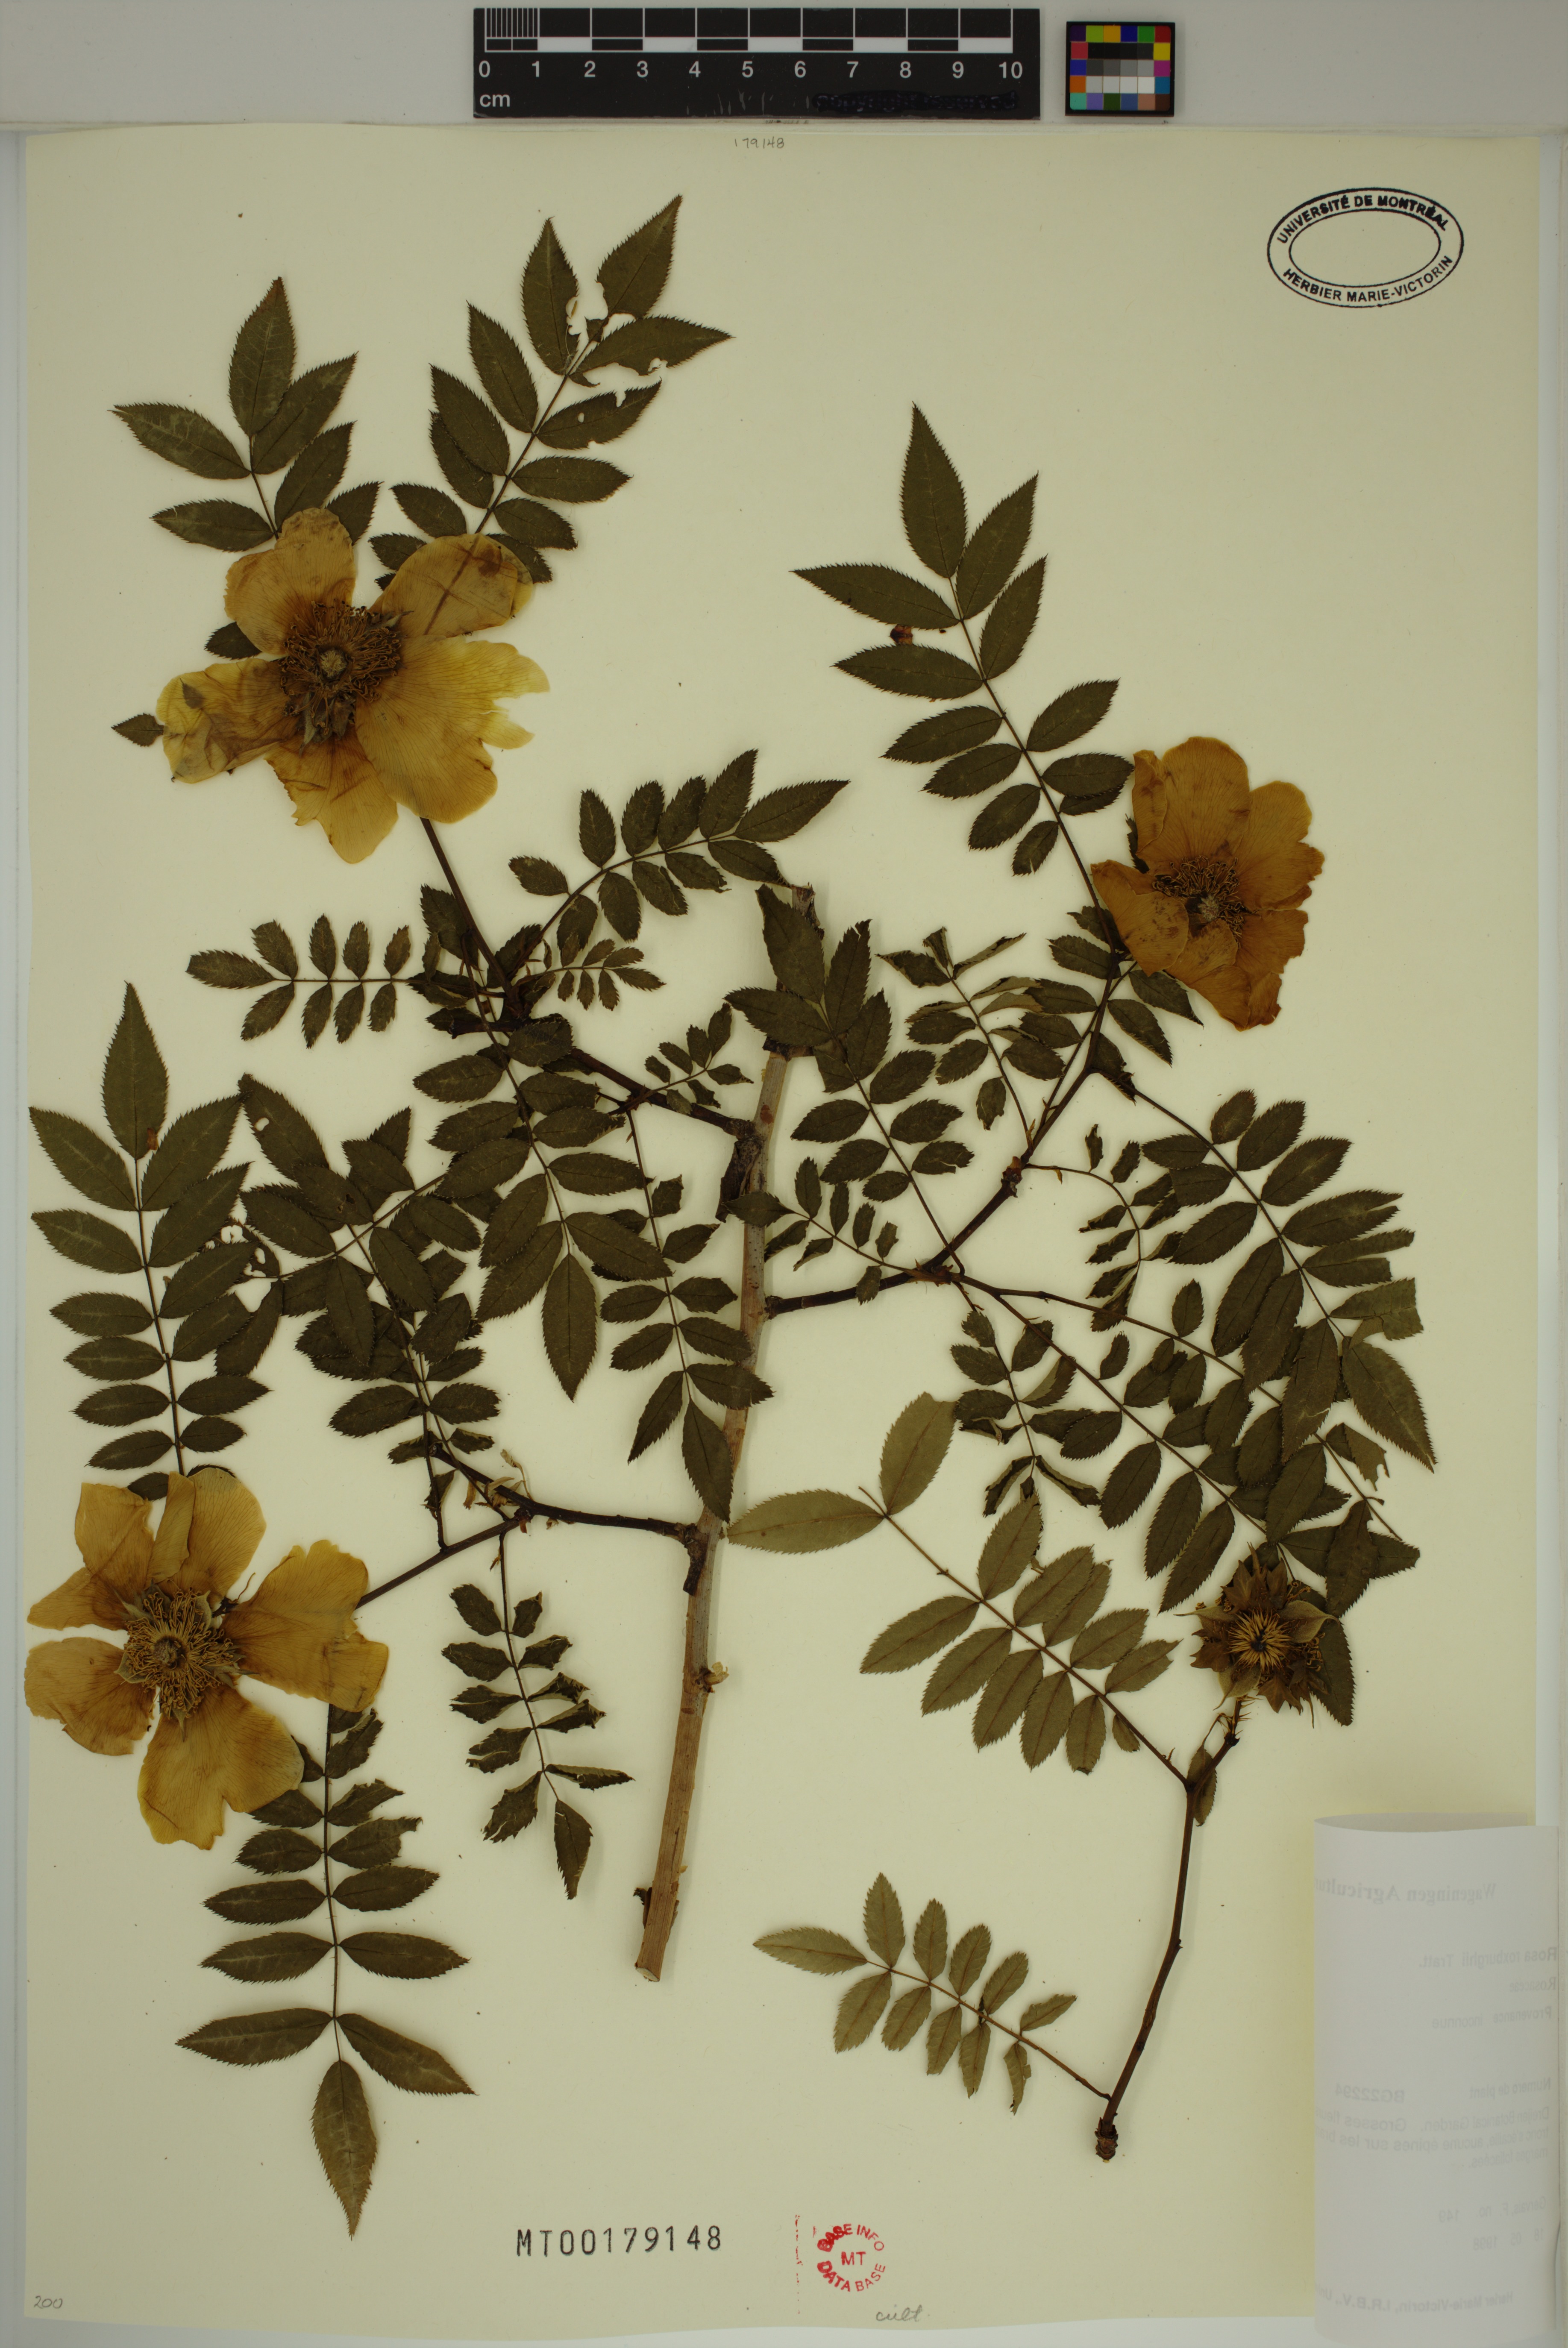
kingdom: Plantae
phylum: Tracheophyta
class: Magnoliopsida
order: Rosales
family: Rosaceae
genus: Rosa
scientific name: Rosa roxburghii
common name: Chinquapin rose
